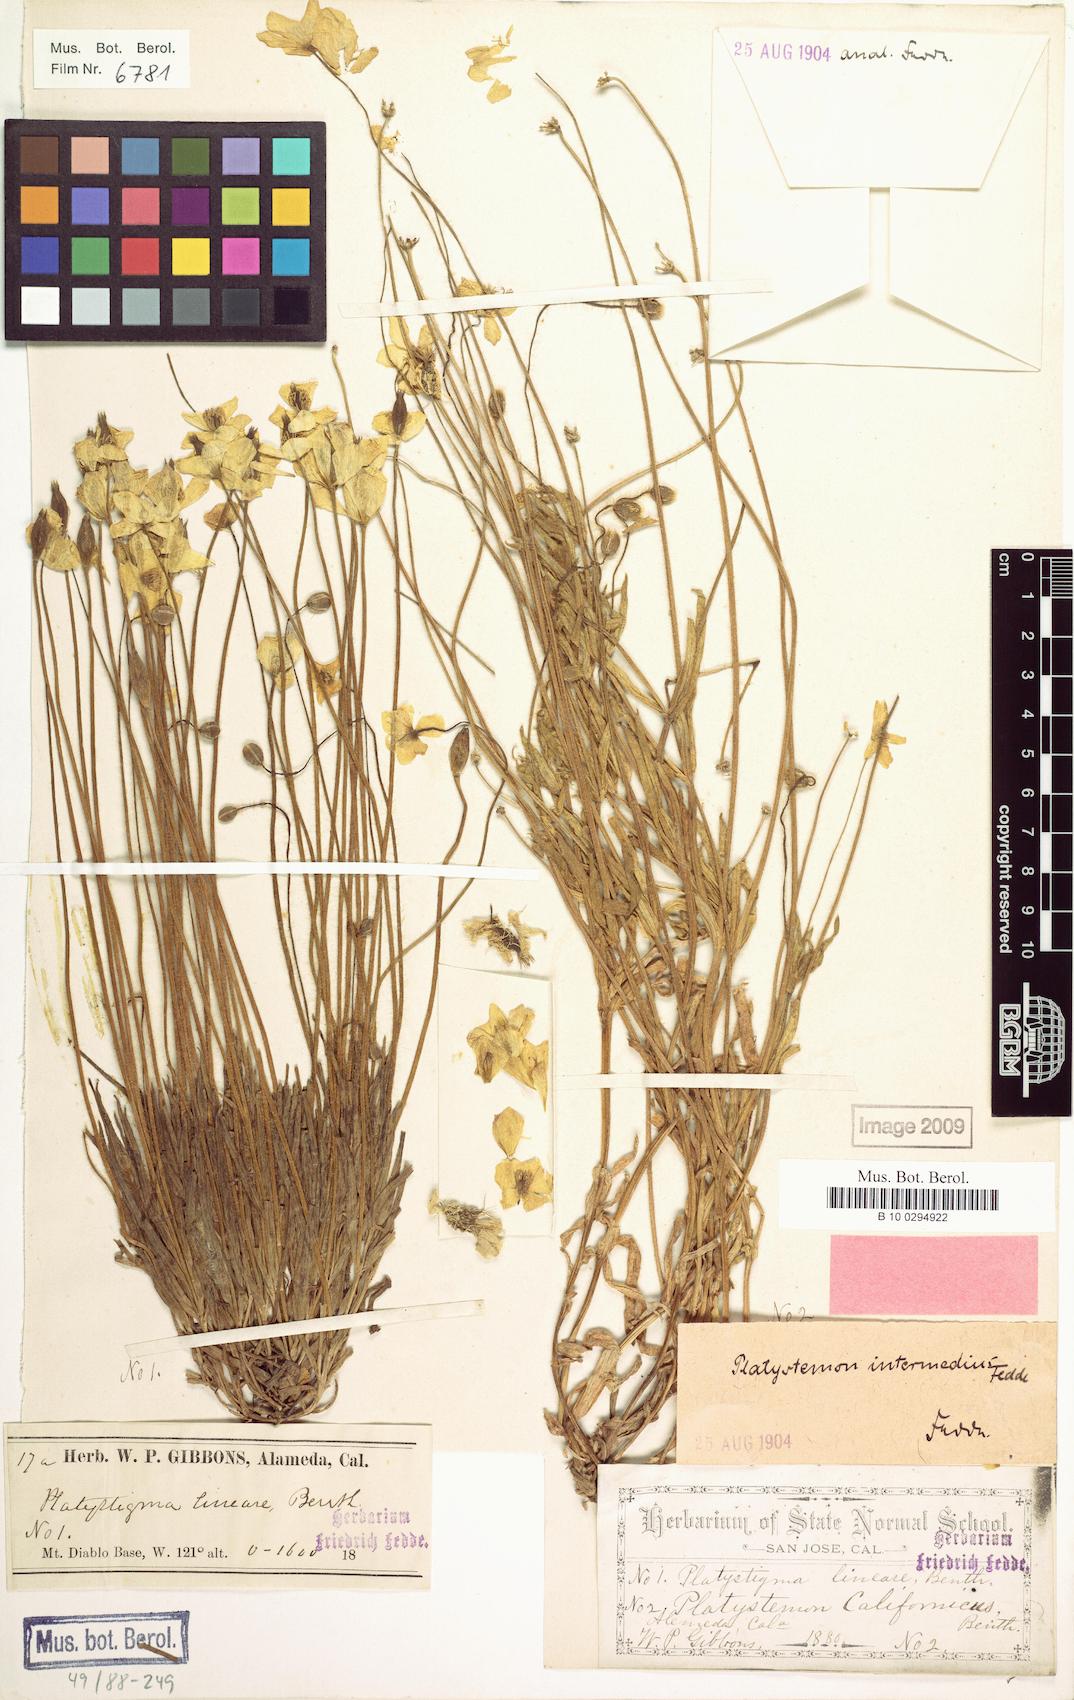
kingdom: Plantae
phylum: Tracheophyta
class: Magnoliopsida
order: Ranunculales
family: Papaveraceae
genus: Platystemon
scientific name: Platystemon californicus
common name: Cream-cups
